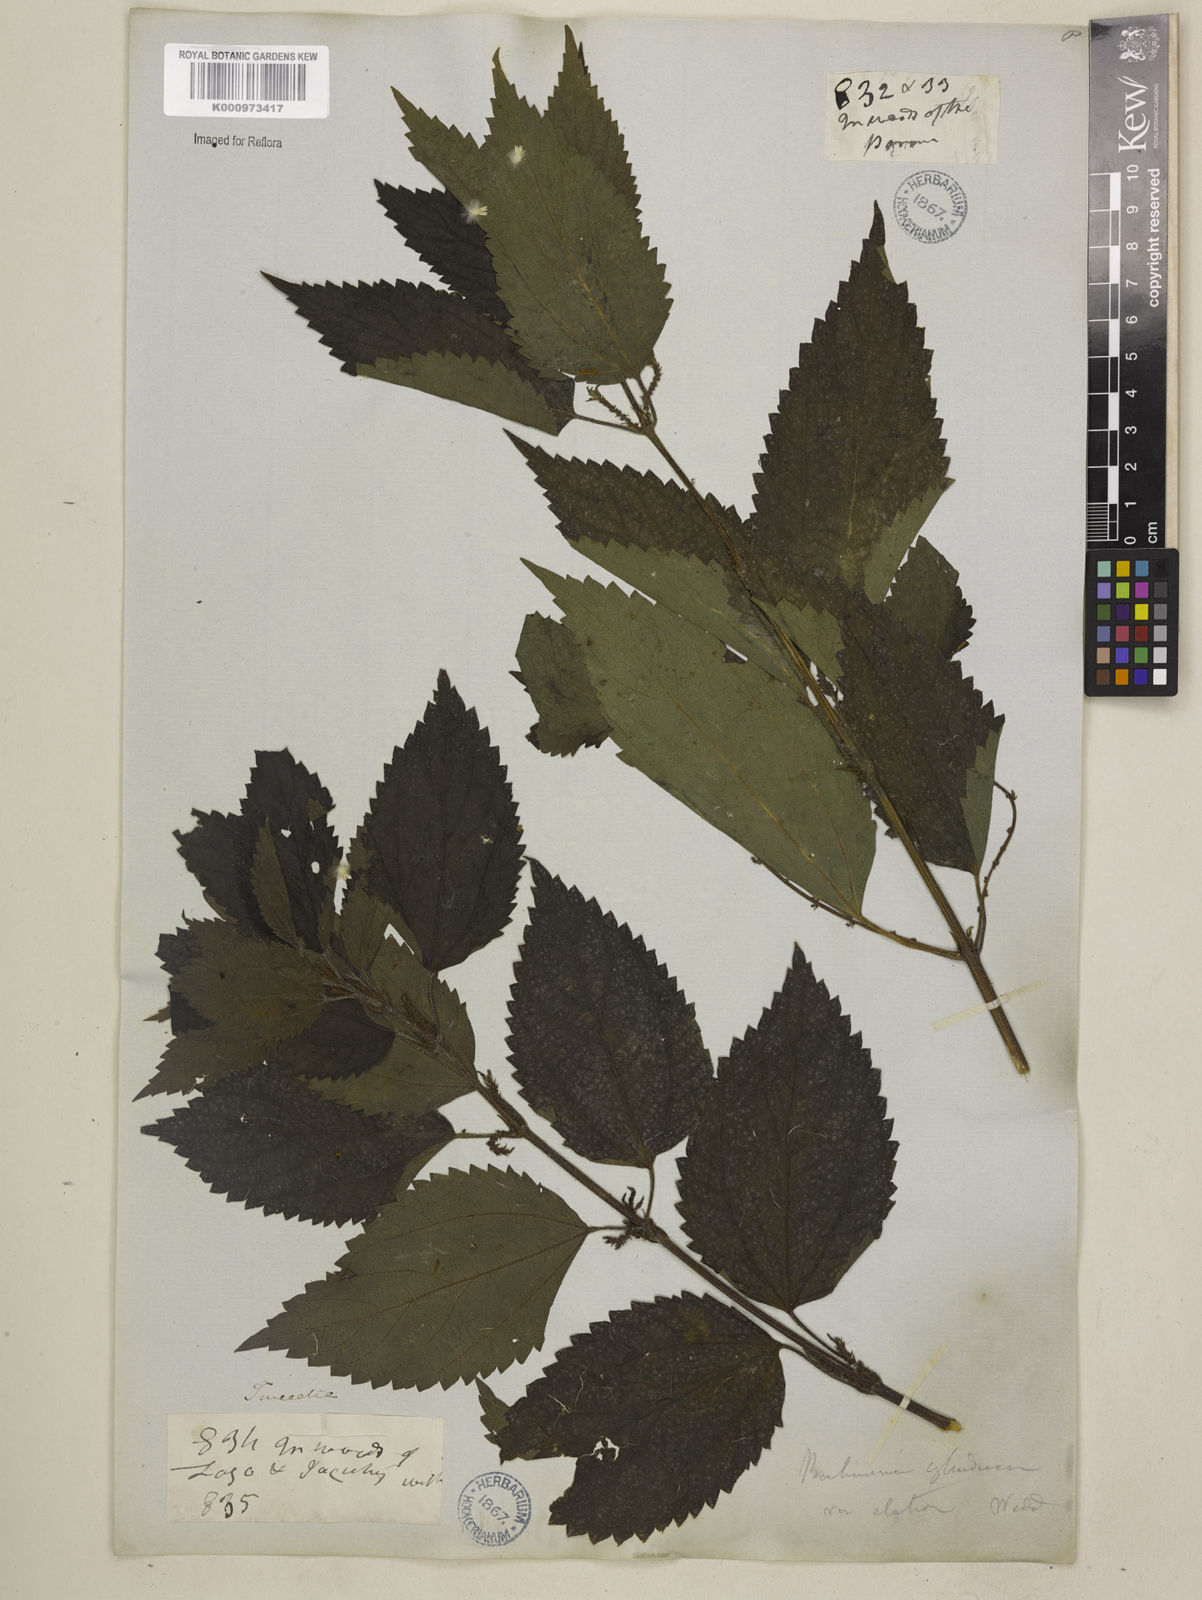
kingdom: Plantae
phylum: Tracheophyta
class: Magnoliopsida
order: Rosales
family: Urticaceae
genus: Boehmeria
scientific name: Boehmeria cylindrica
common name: Bog-hemp
